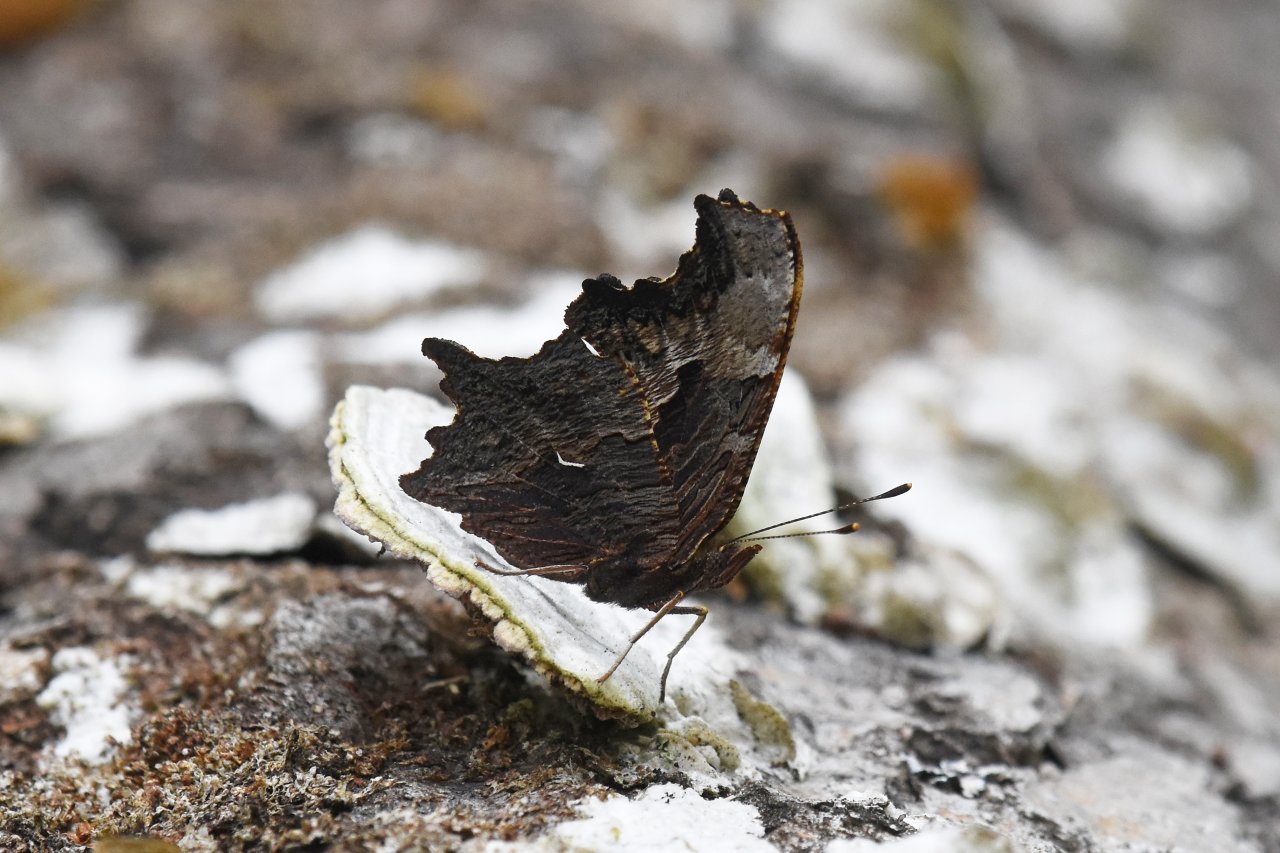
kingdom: Animalia
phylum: Arthropoda
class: Insecta
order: Lepidoptera
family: Nymphalidae
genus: Polygonia
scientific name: Polygonia progne
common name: Gray Comma
